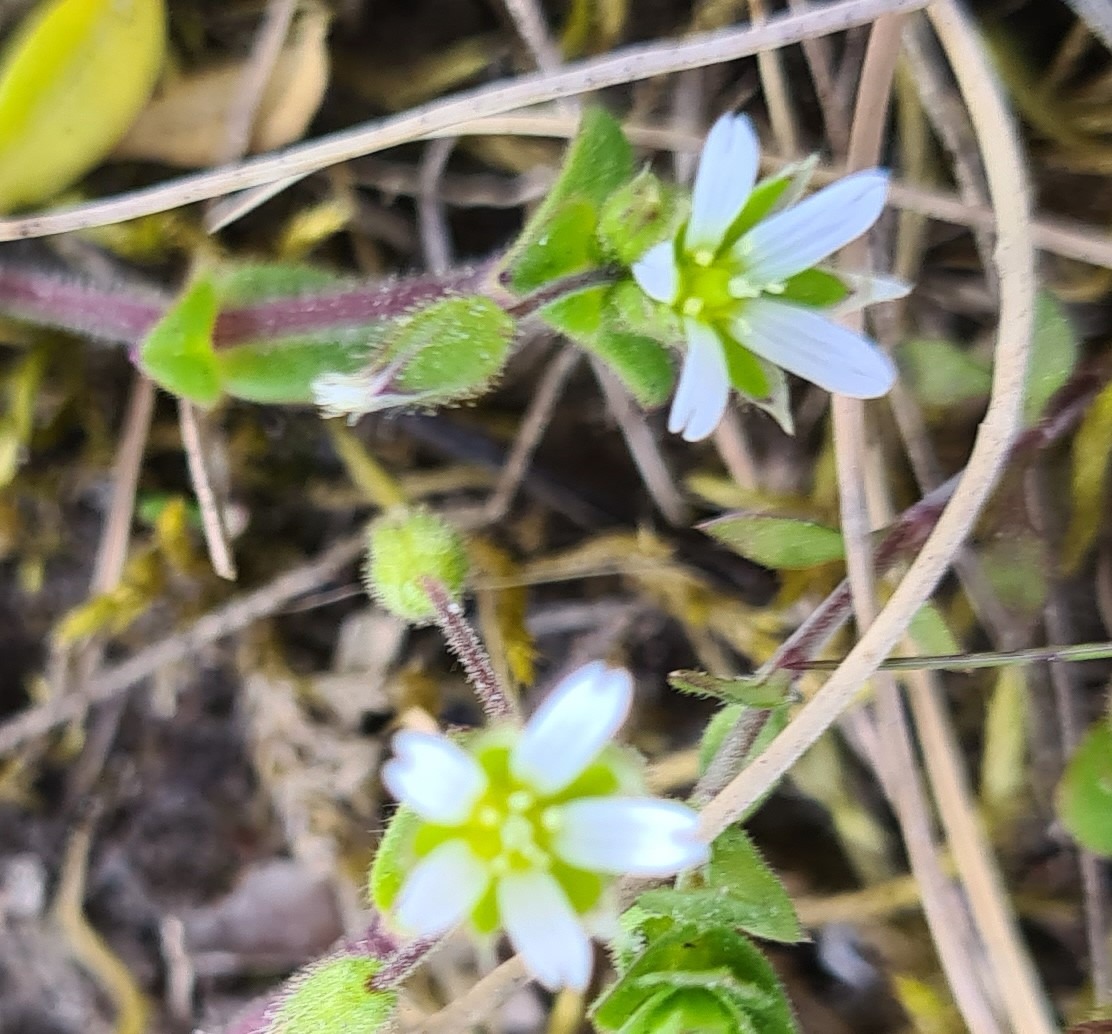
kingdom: Plantae
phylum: Tracheophyta
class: Magnoliopsida
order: Caryophyllales
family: Caryophyllaceae
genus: Cerastium
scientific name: Cerastium semidecandrum
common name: Femhannet hønsetarm
